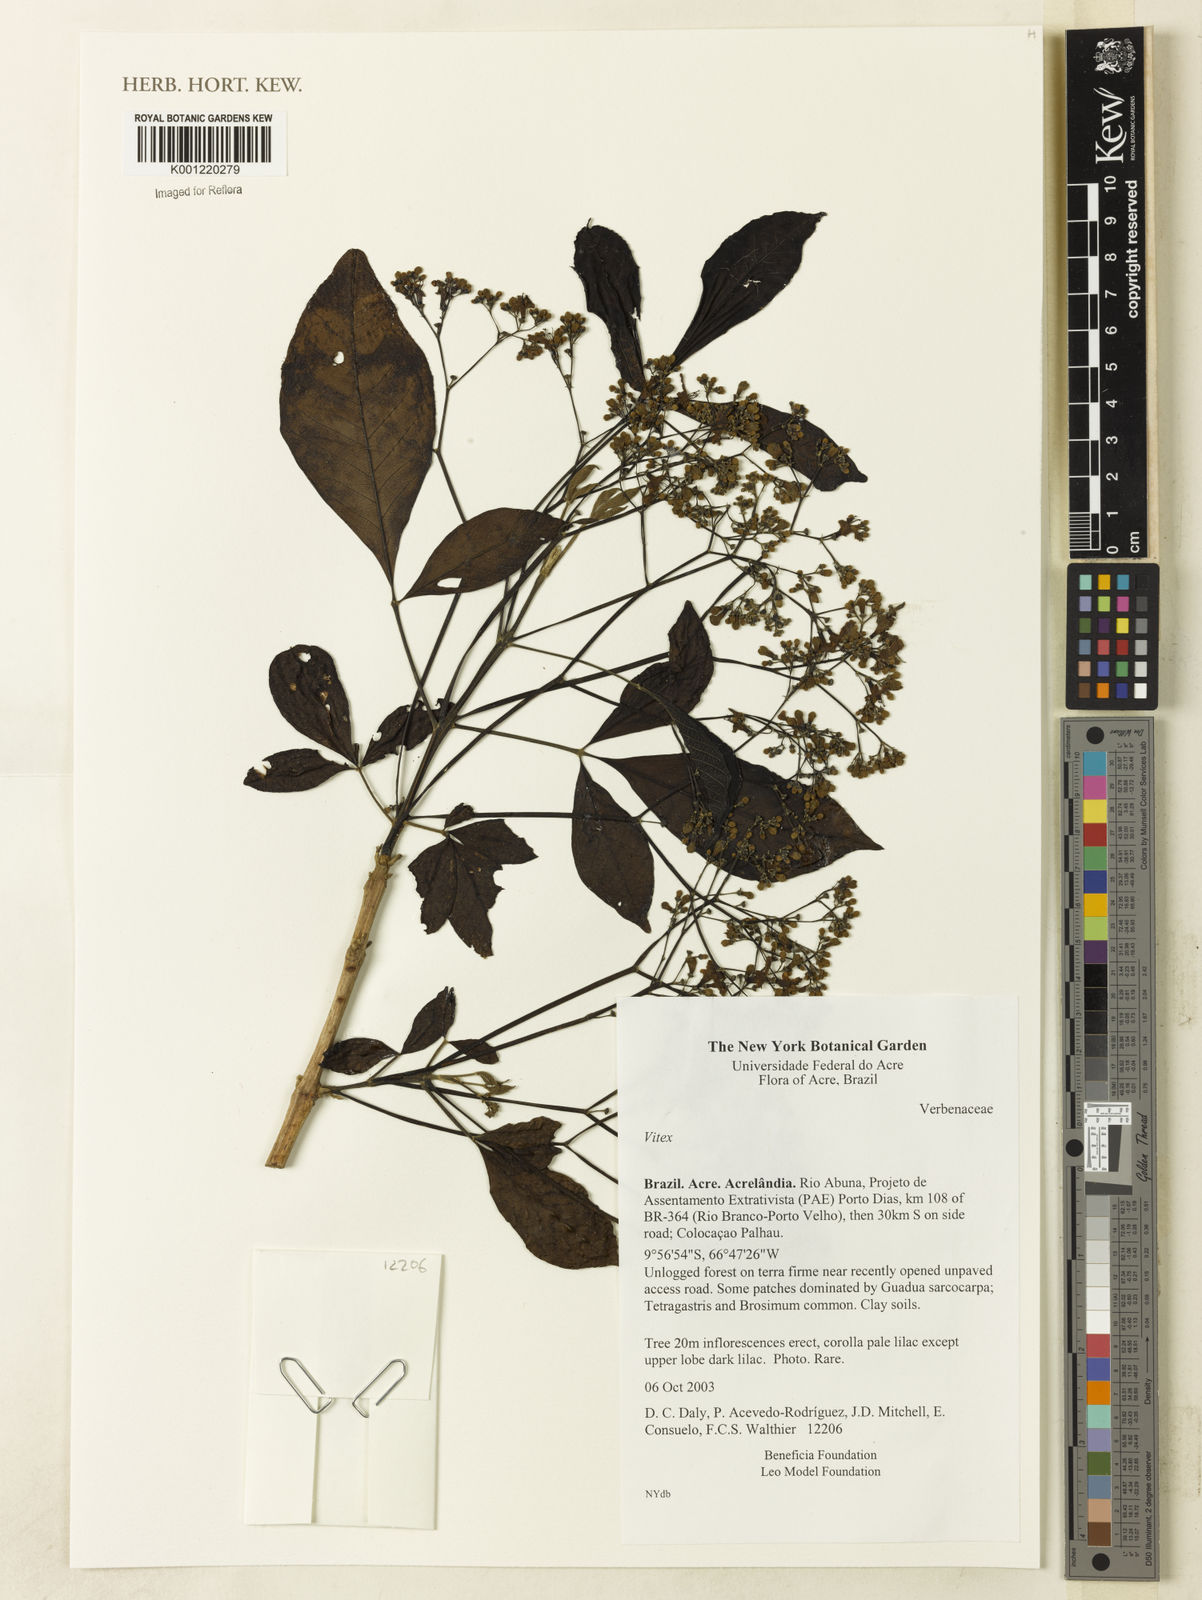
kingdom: Plantae
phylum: Tracheophyta
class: Magnoliopsida
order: Lamiales
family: Lamiaceae
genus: Vitex
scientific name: Vitex
